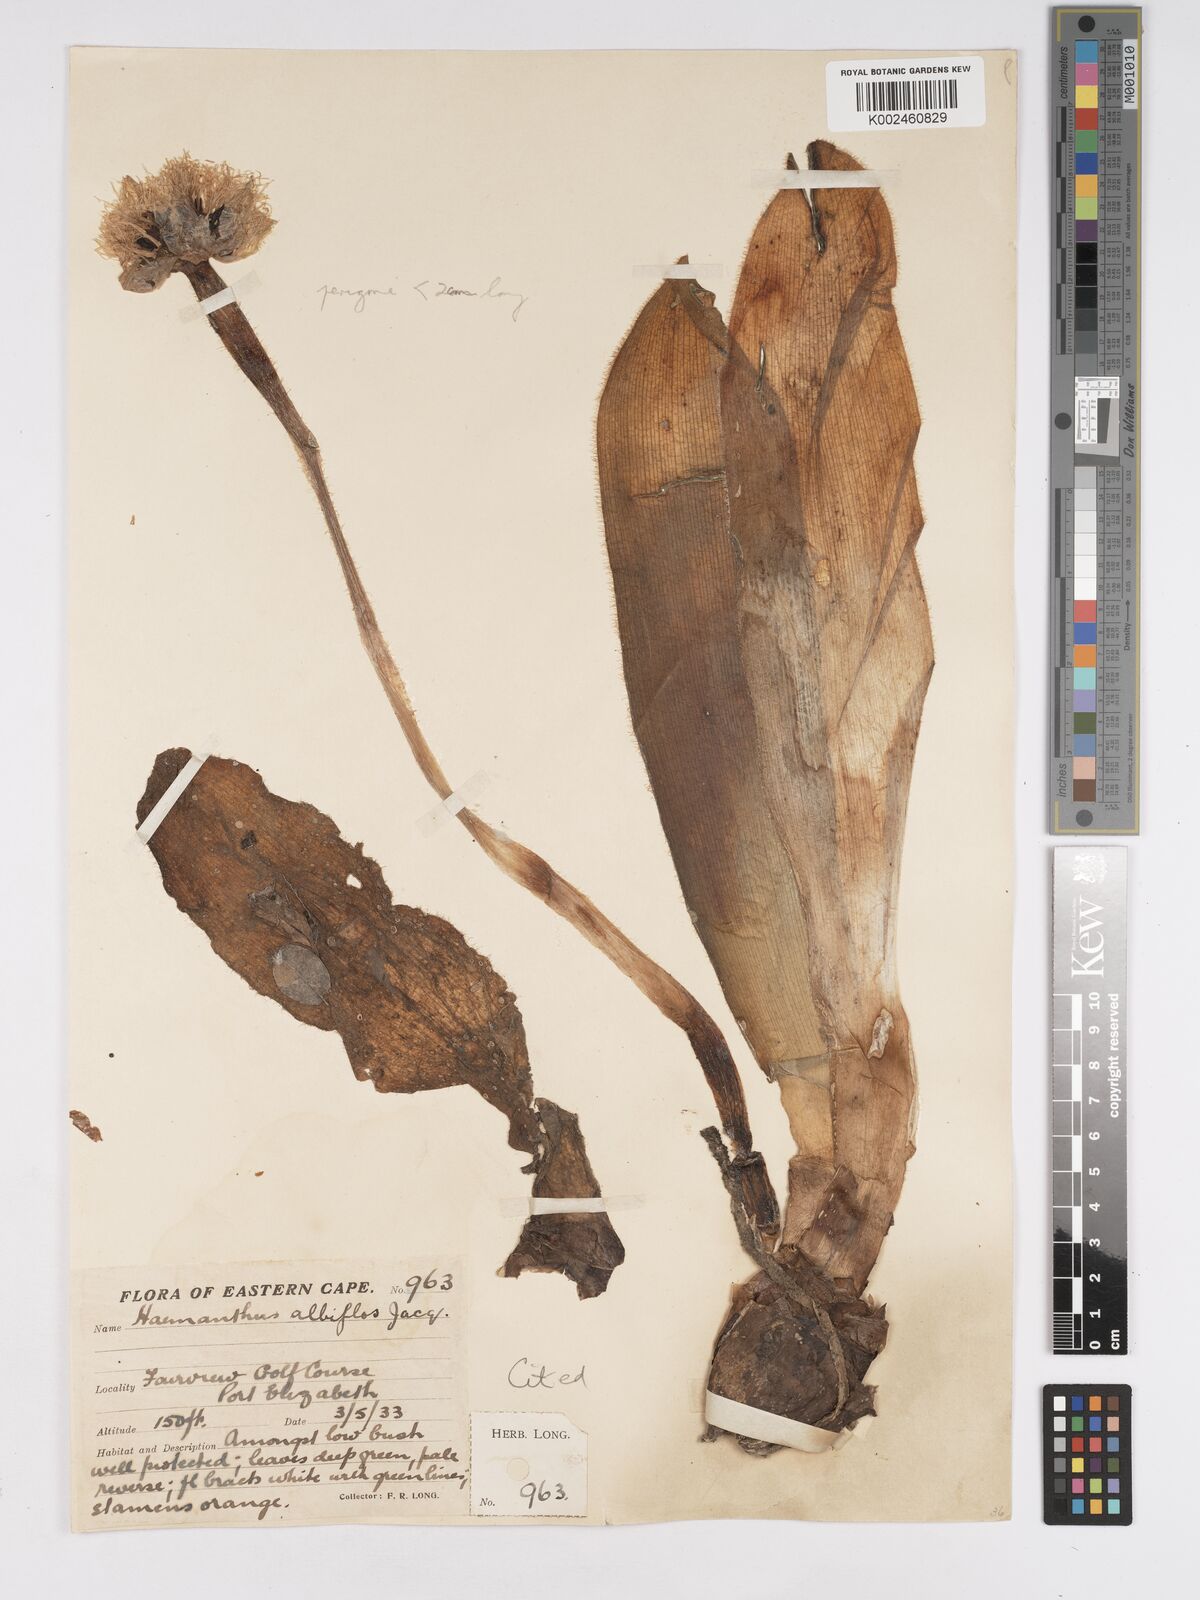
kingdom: Plantae
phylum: Tracheophyta
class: Liliopsida
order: Asparagales
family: Amaryllidaceae
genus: Haemanthus
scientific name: Haemanthus albiflos
